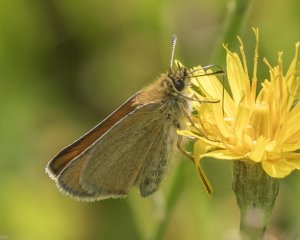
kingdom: Animalia
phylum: Arthropoda
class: Insecta
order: Lepidoptera
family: Hesperiidae
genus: Thymelicus
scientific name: Thymelicus lineola
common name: European Skipper
